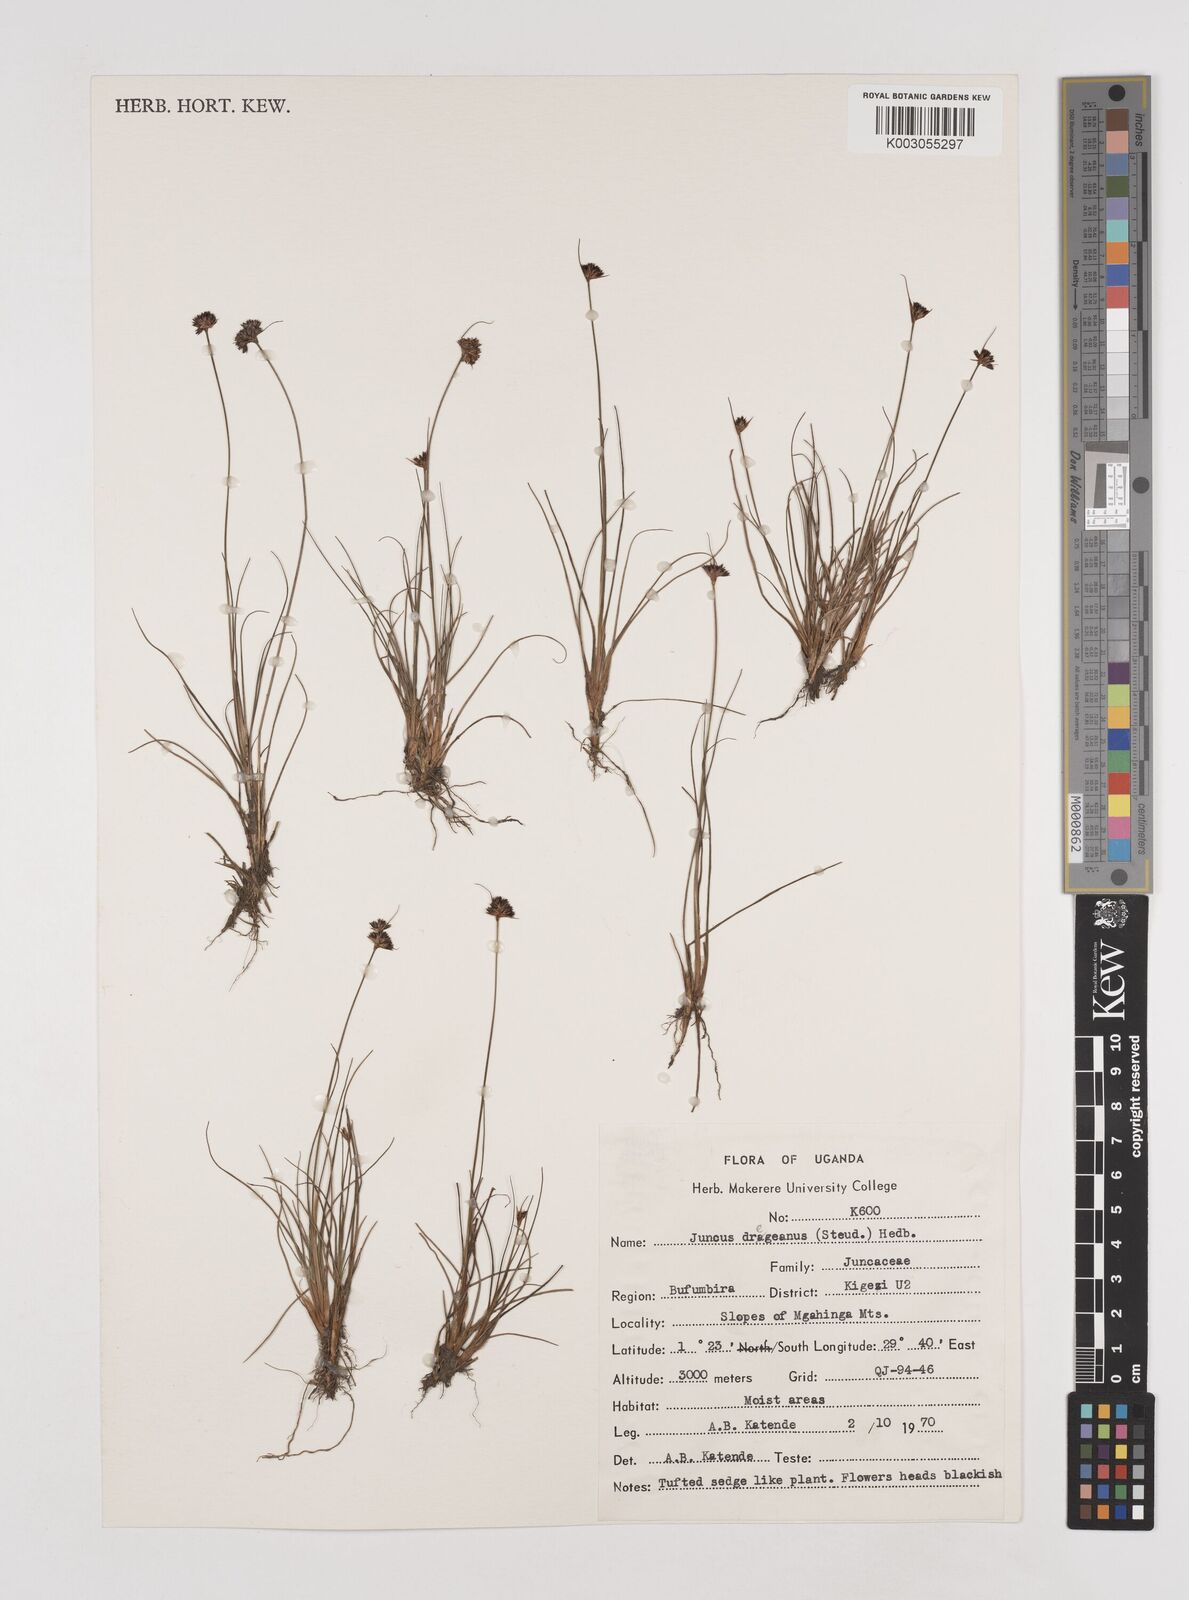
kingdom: Plantae
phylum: Tracheophyta
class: Liliopsida
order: Poales
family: Juncaceae
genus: Juncus
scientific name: Juncus dregeanus
